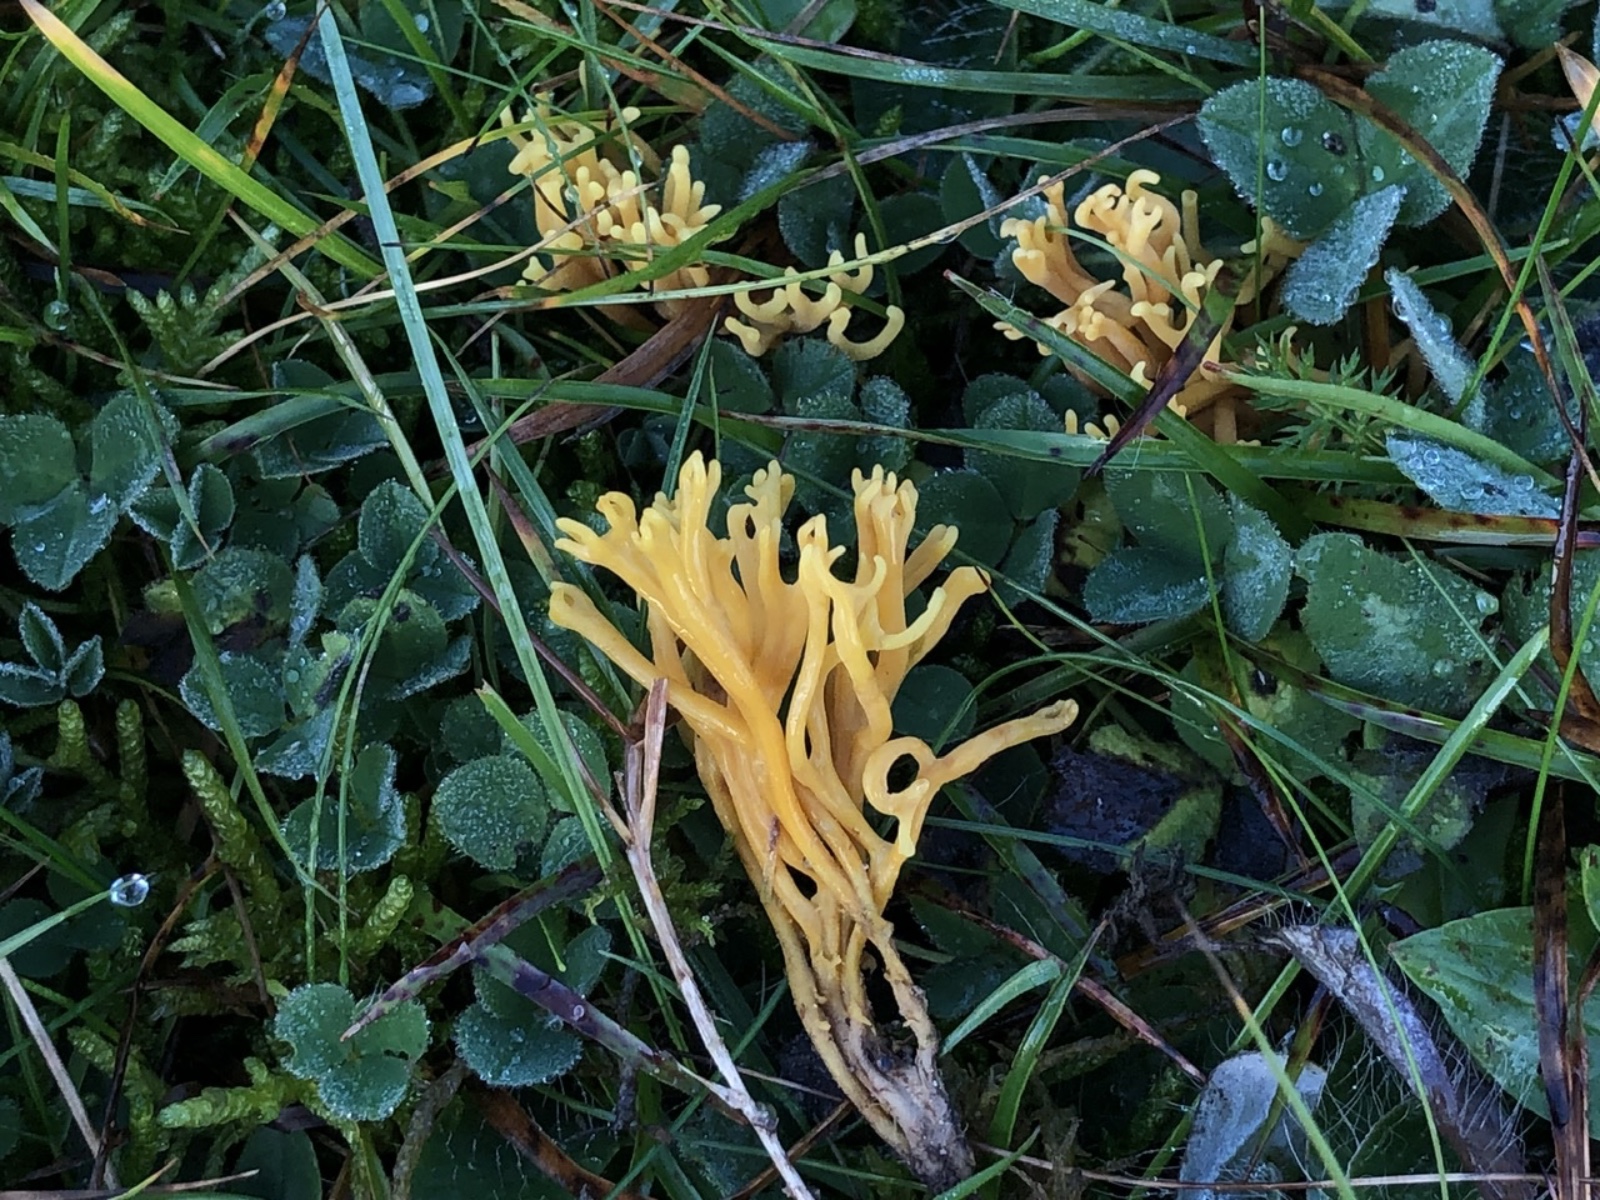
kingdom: Fungi
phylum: Basidiomycota
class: Agaricomycetes
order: Agaricales
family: Clavariaceae
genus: Clavulinopsis
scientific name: Clavulinopsis corniculata
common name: eng-køllesvamp
